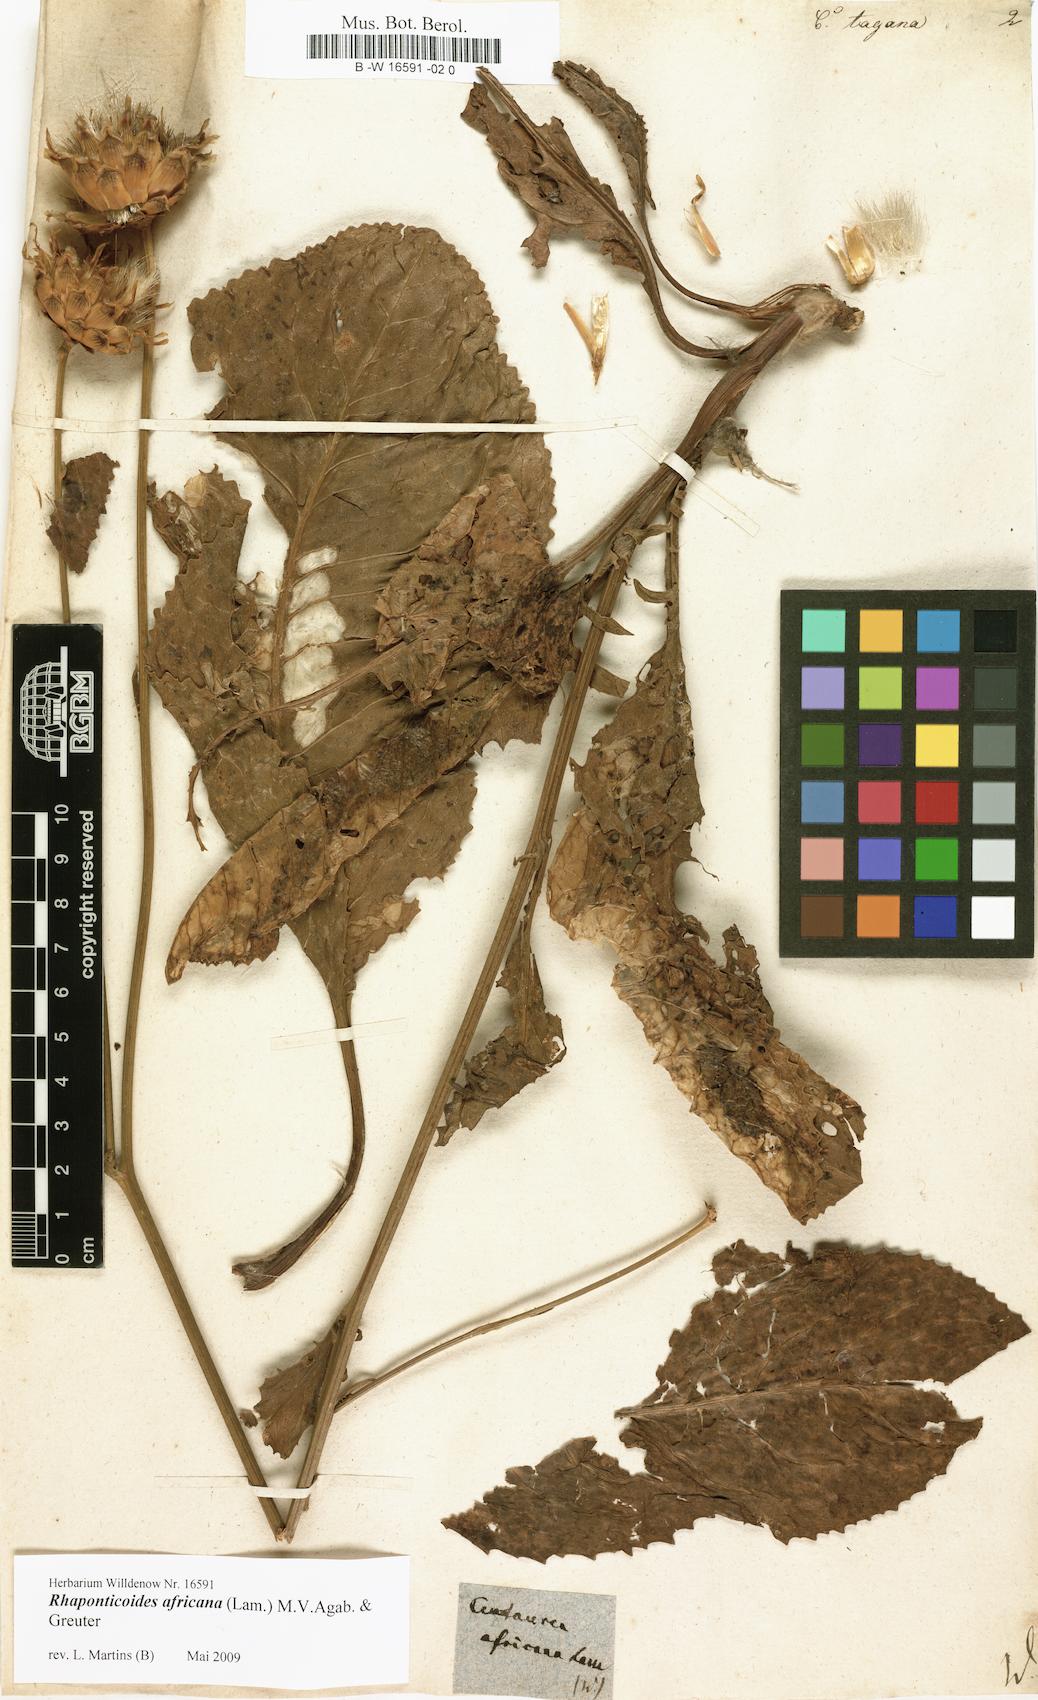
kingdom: Plantae
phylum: Tracheophyta
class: Magnoliopsida
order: Asterales
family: Asteraceae
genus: Rhaponticoides
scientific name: Rhaponticoides africana
